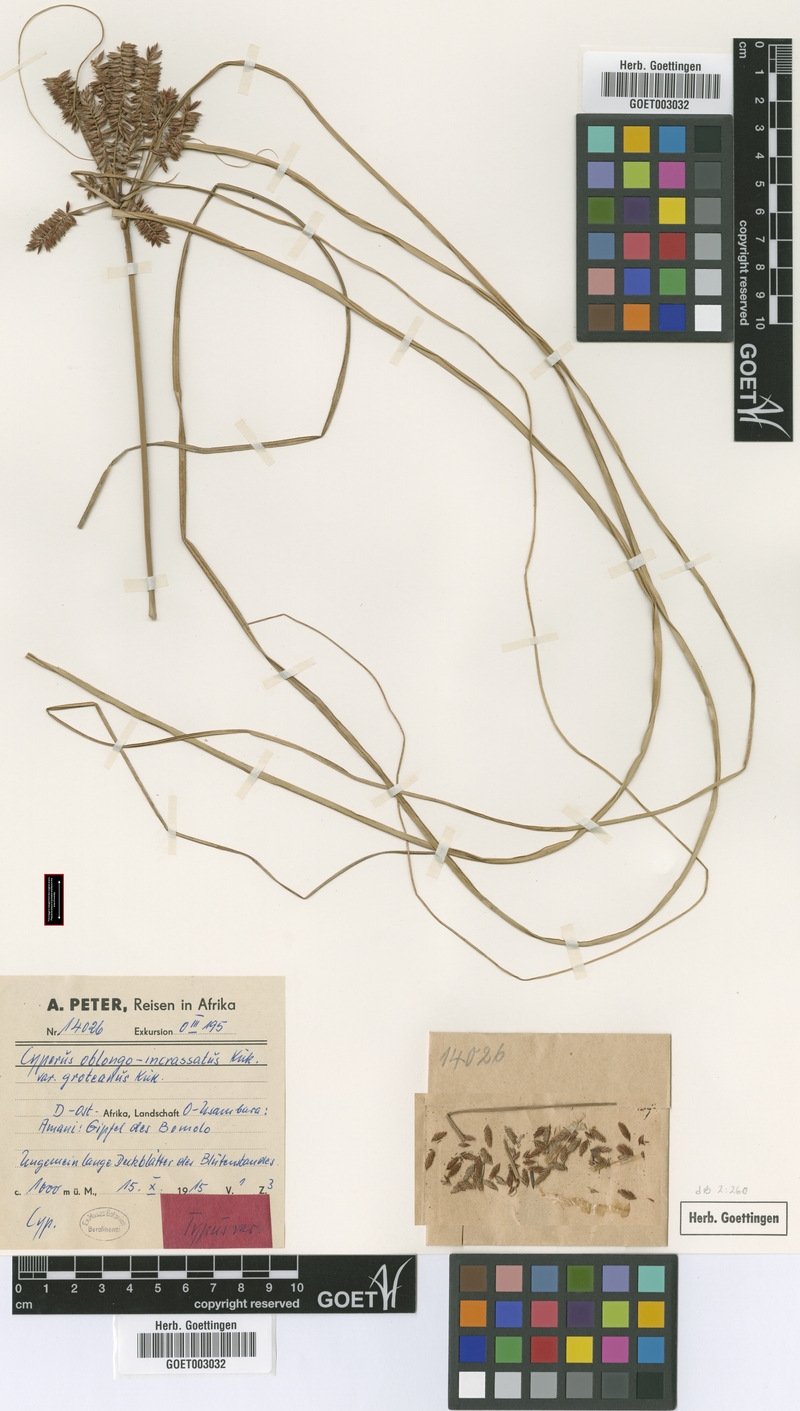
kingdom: Plantae
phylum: Tracheophyta
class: Liliopsida
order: Poales
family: Cyperaceae
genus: Cyperus
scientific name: Cyperus oblongoincrassatus
